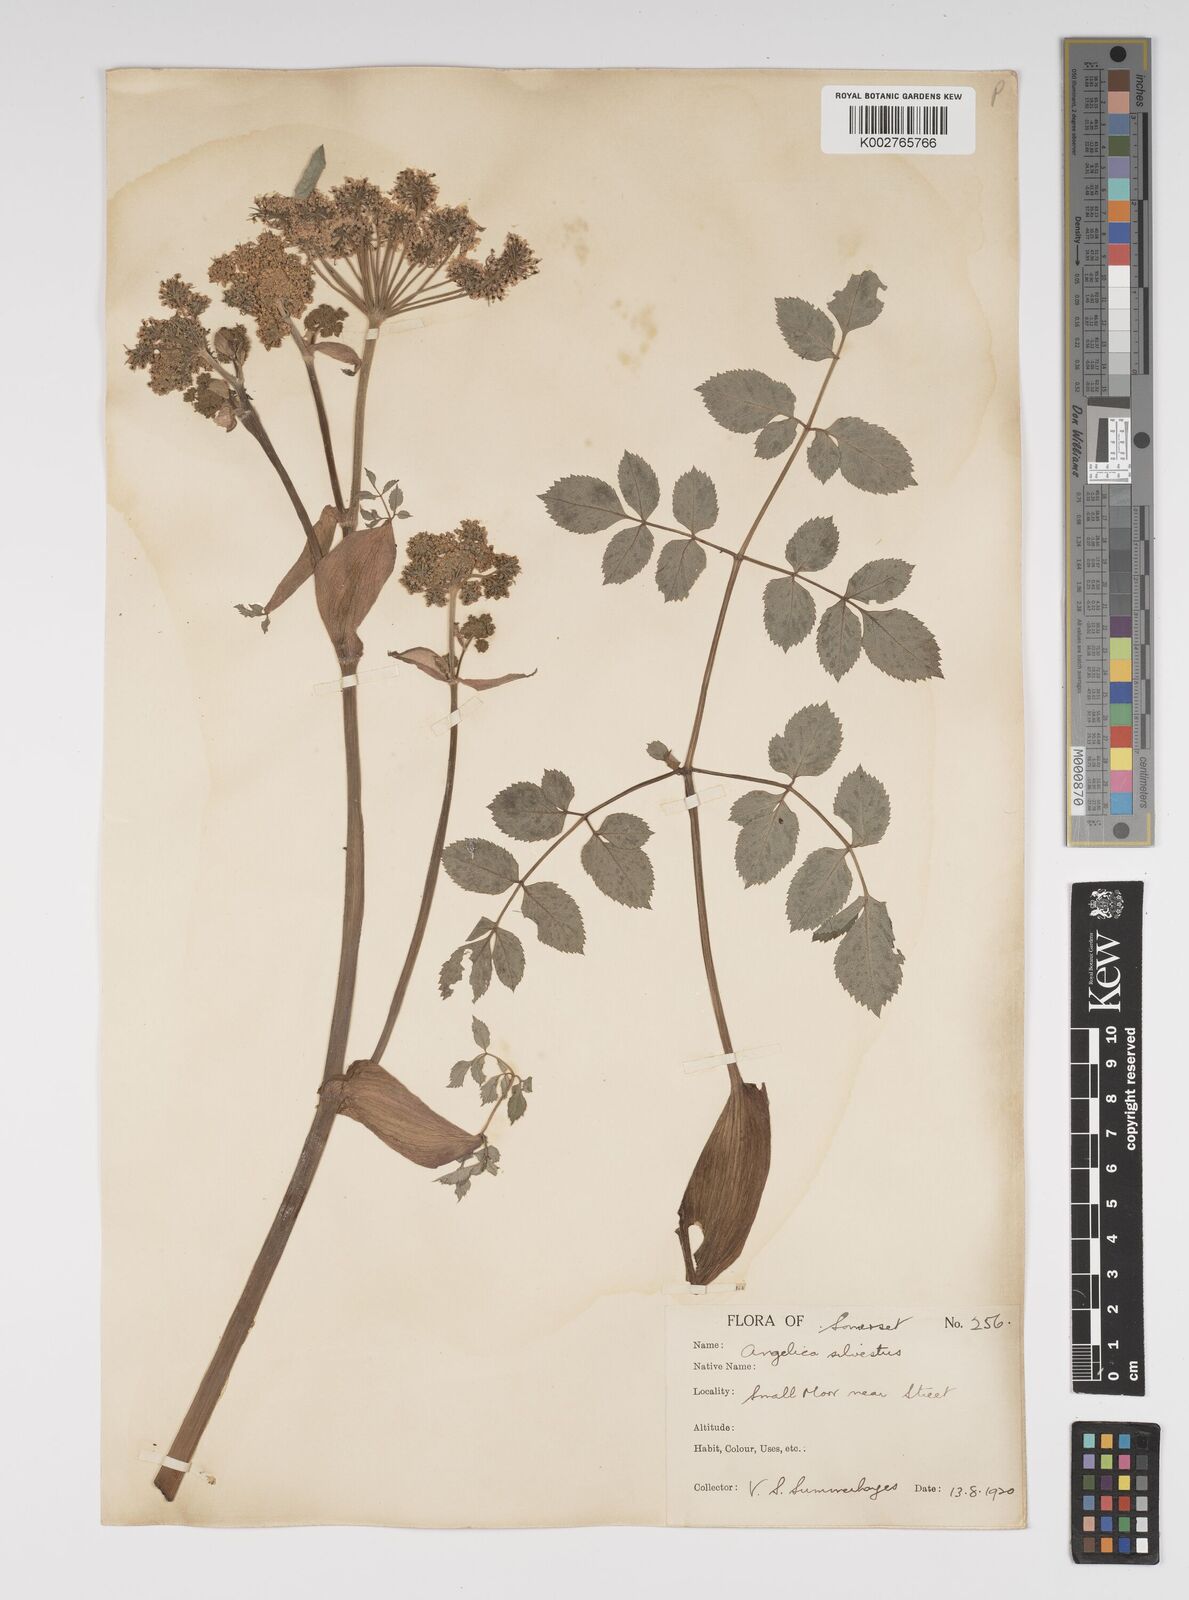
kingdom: Plantae
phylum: Tracheophyta
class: Magnoliopsida
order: Apiales
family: Apiaceae
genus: Angelica
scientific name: Angelica sylvestris
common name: Wild angelica
